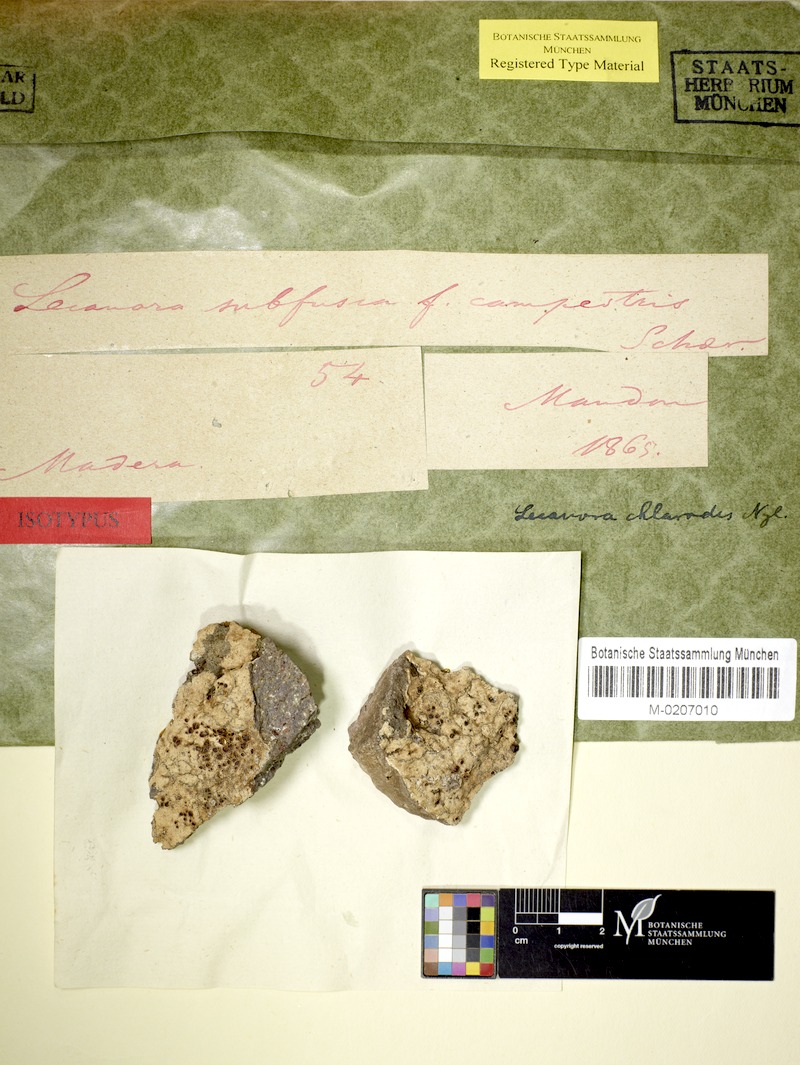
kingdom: Fungi
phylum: Ascomycota
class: Lecanoromycetes
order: Lecanorales
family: Lecanoraceae
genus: Lecanora
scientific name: Lecanora chlarodes
